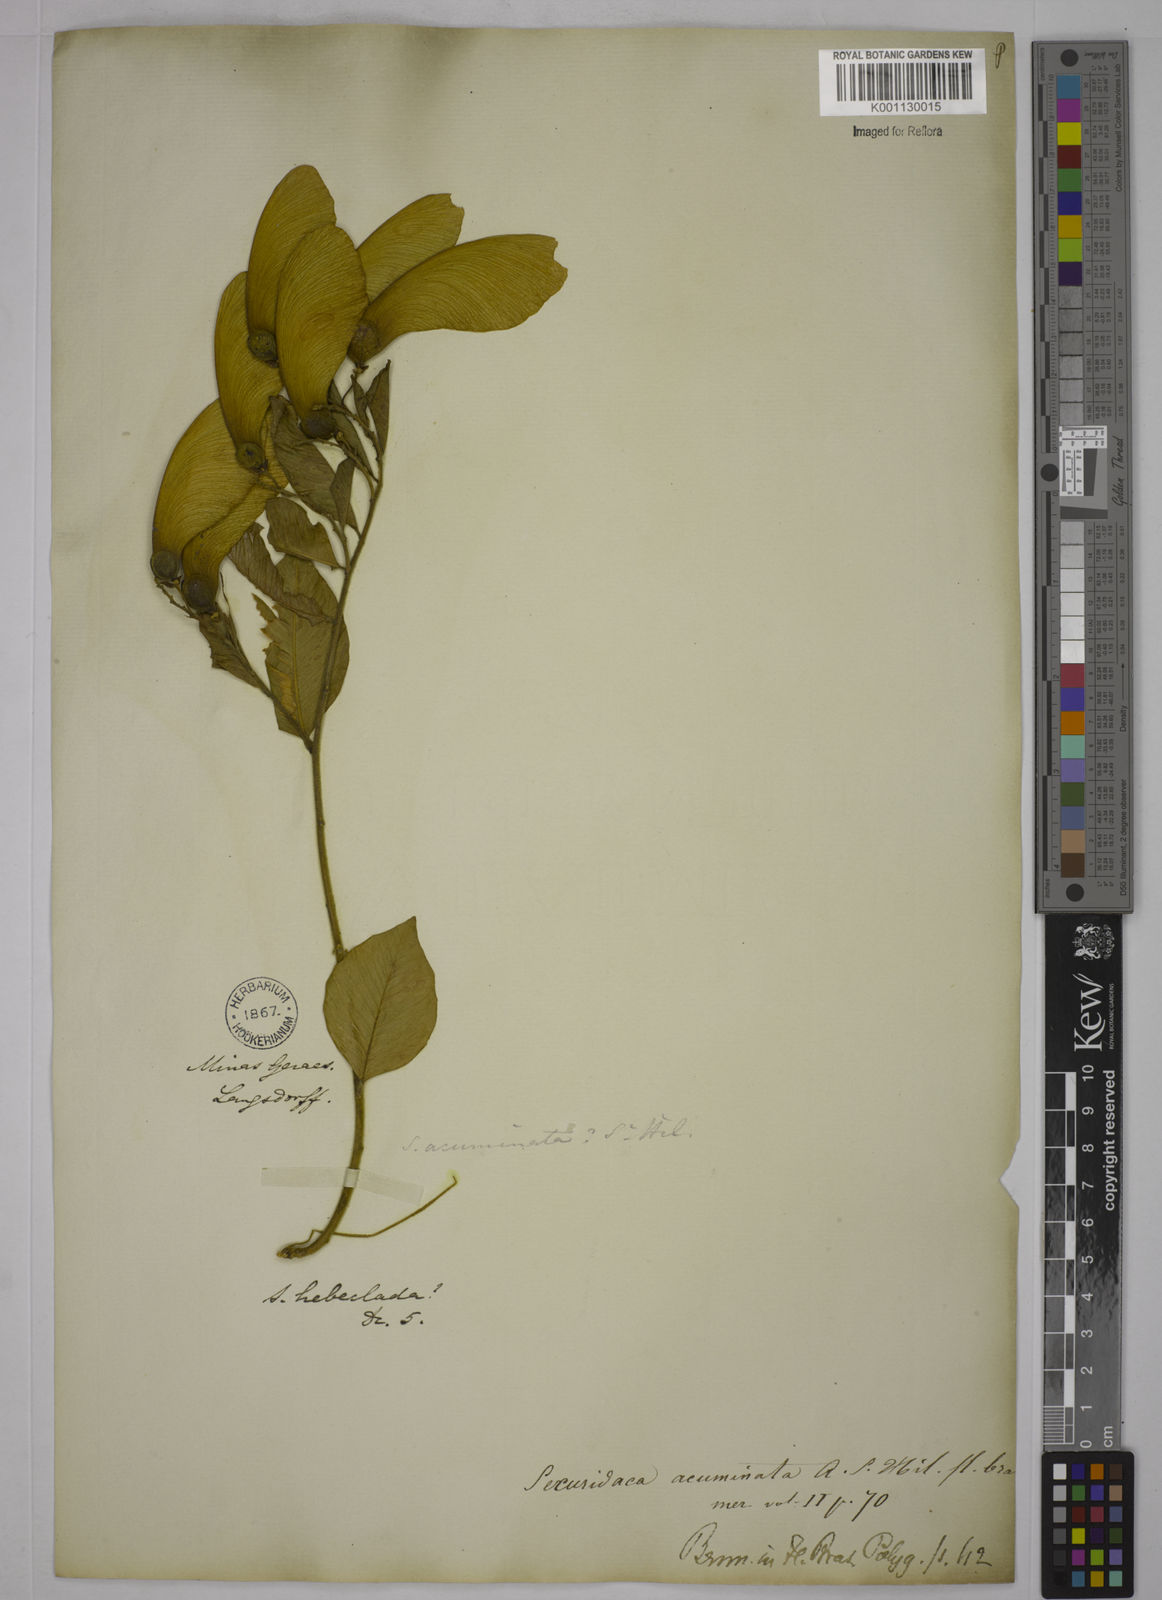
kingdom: Plantae
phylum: Tracheophyta
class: Magnoliopsida
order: Fabales
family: Polygalaceae
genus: Securidaca
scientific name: Securidaca acuminata
